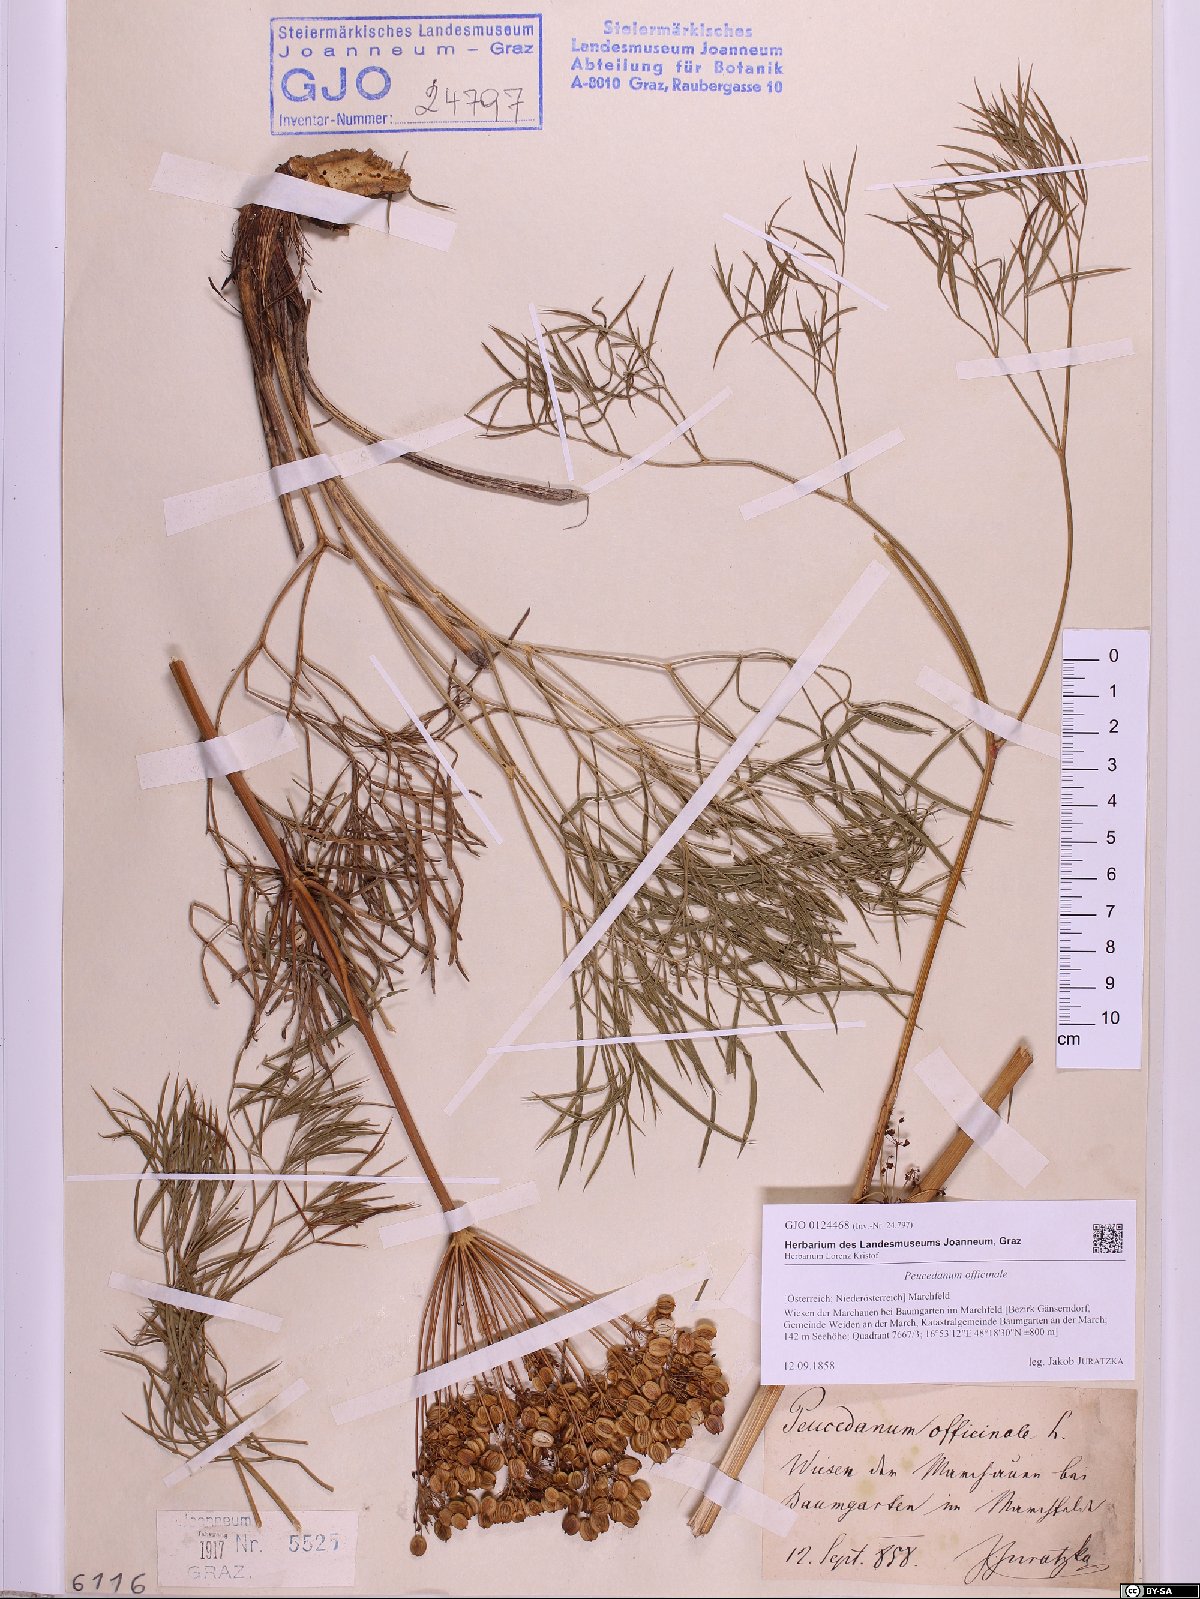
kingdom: Plantae
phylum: Tracheophyta
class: Magnoliopsida
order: Apiales
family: Apiaceae
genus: Peucedanum
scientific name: Peucedanum officinale
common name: Sulphurweed
